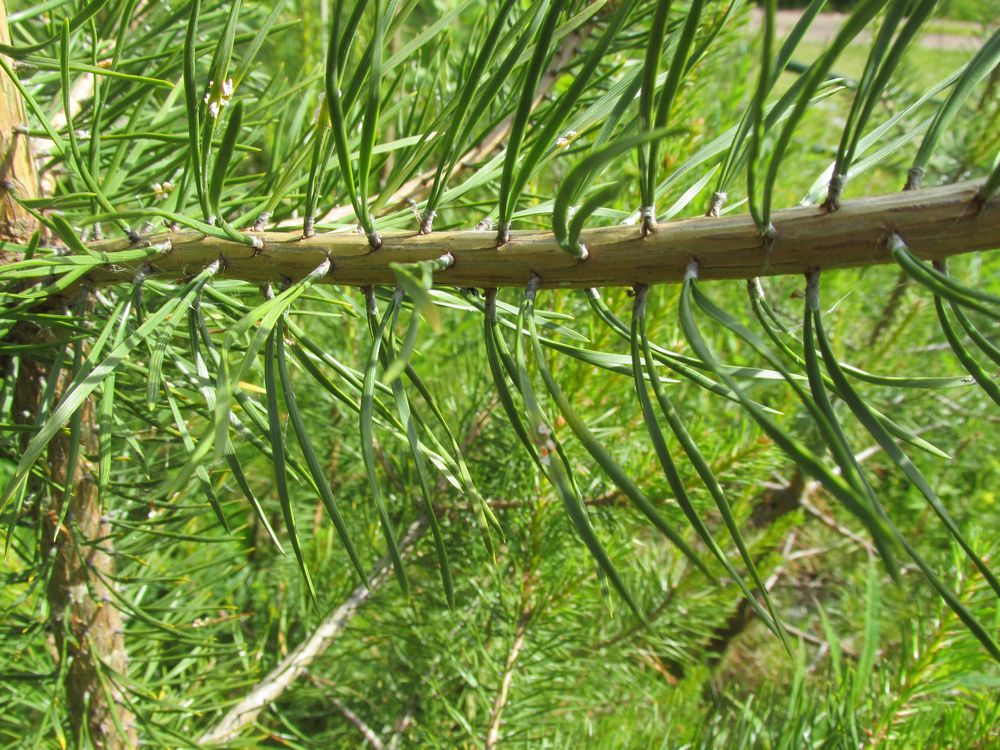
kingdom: Plantae
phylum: Tracheophyta
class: Pinopsida
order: Pinales
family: Pinaceae
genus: Pinus
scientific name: Pinus sylvestris
